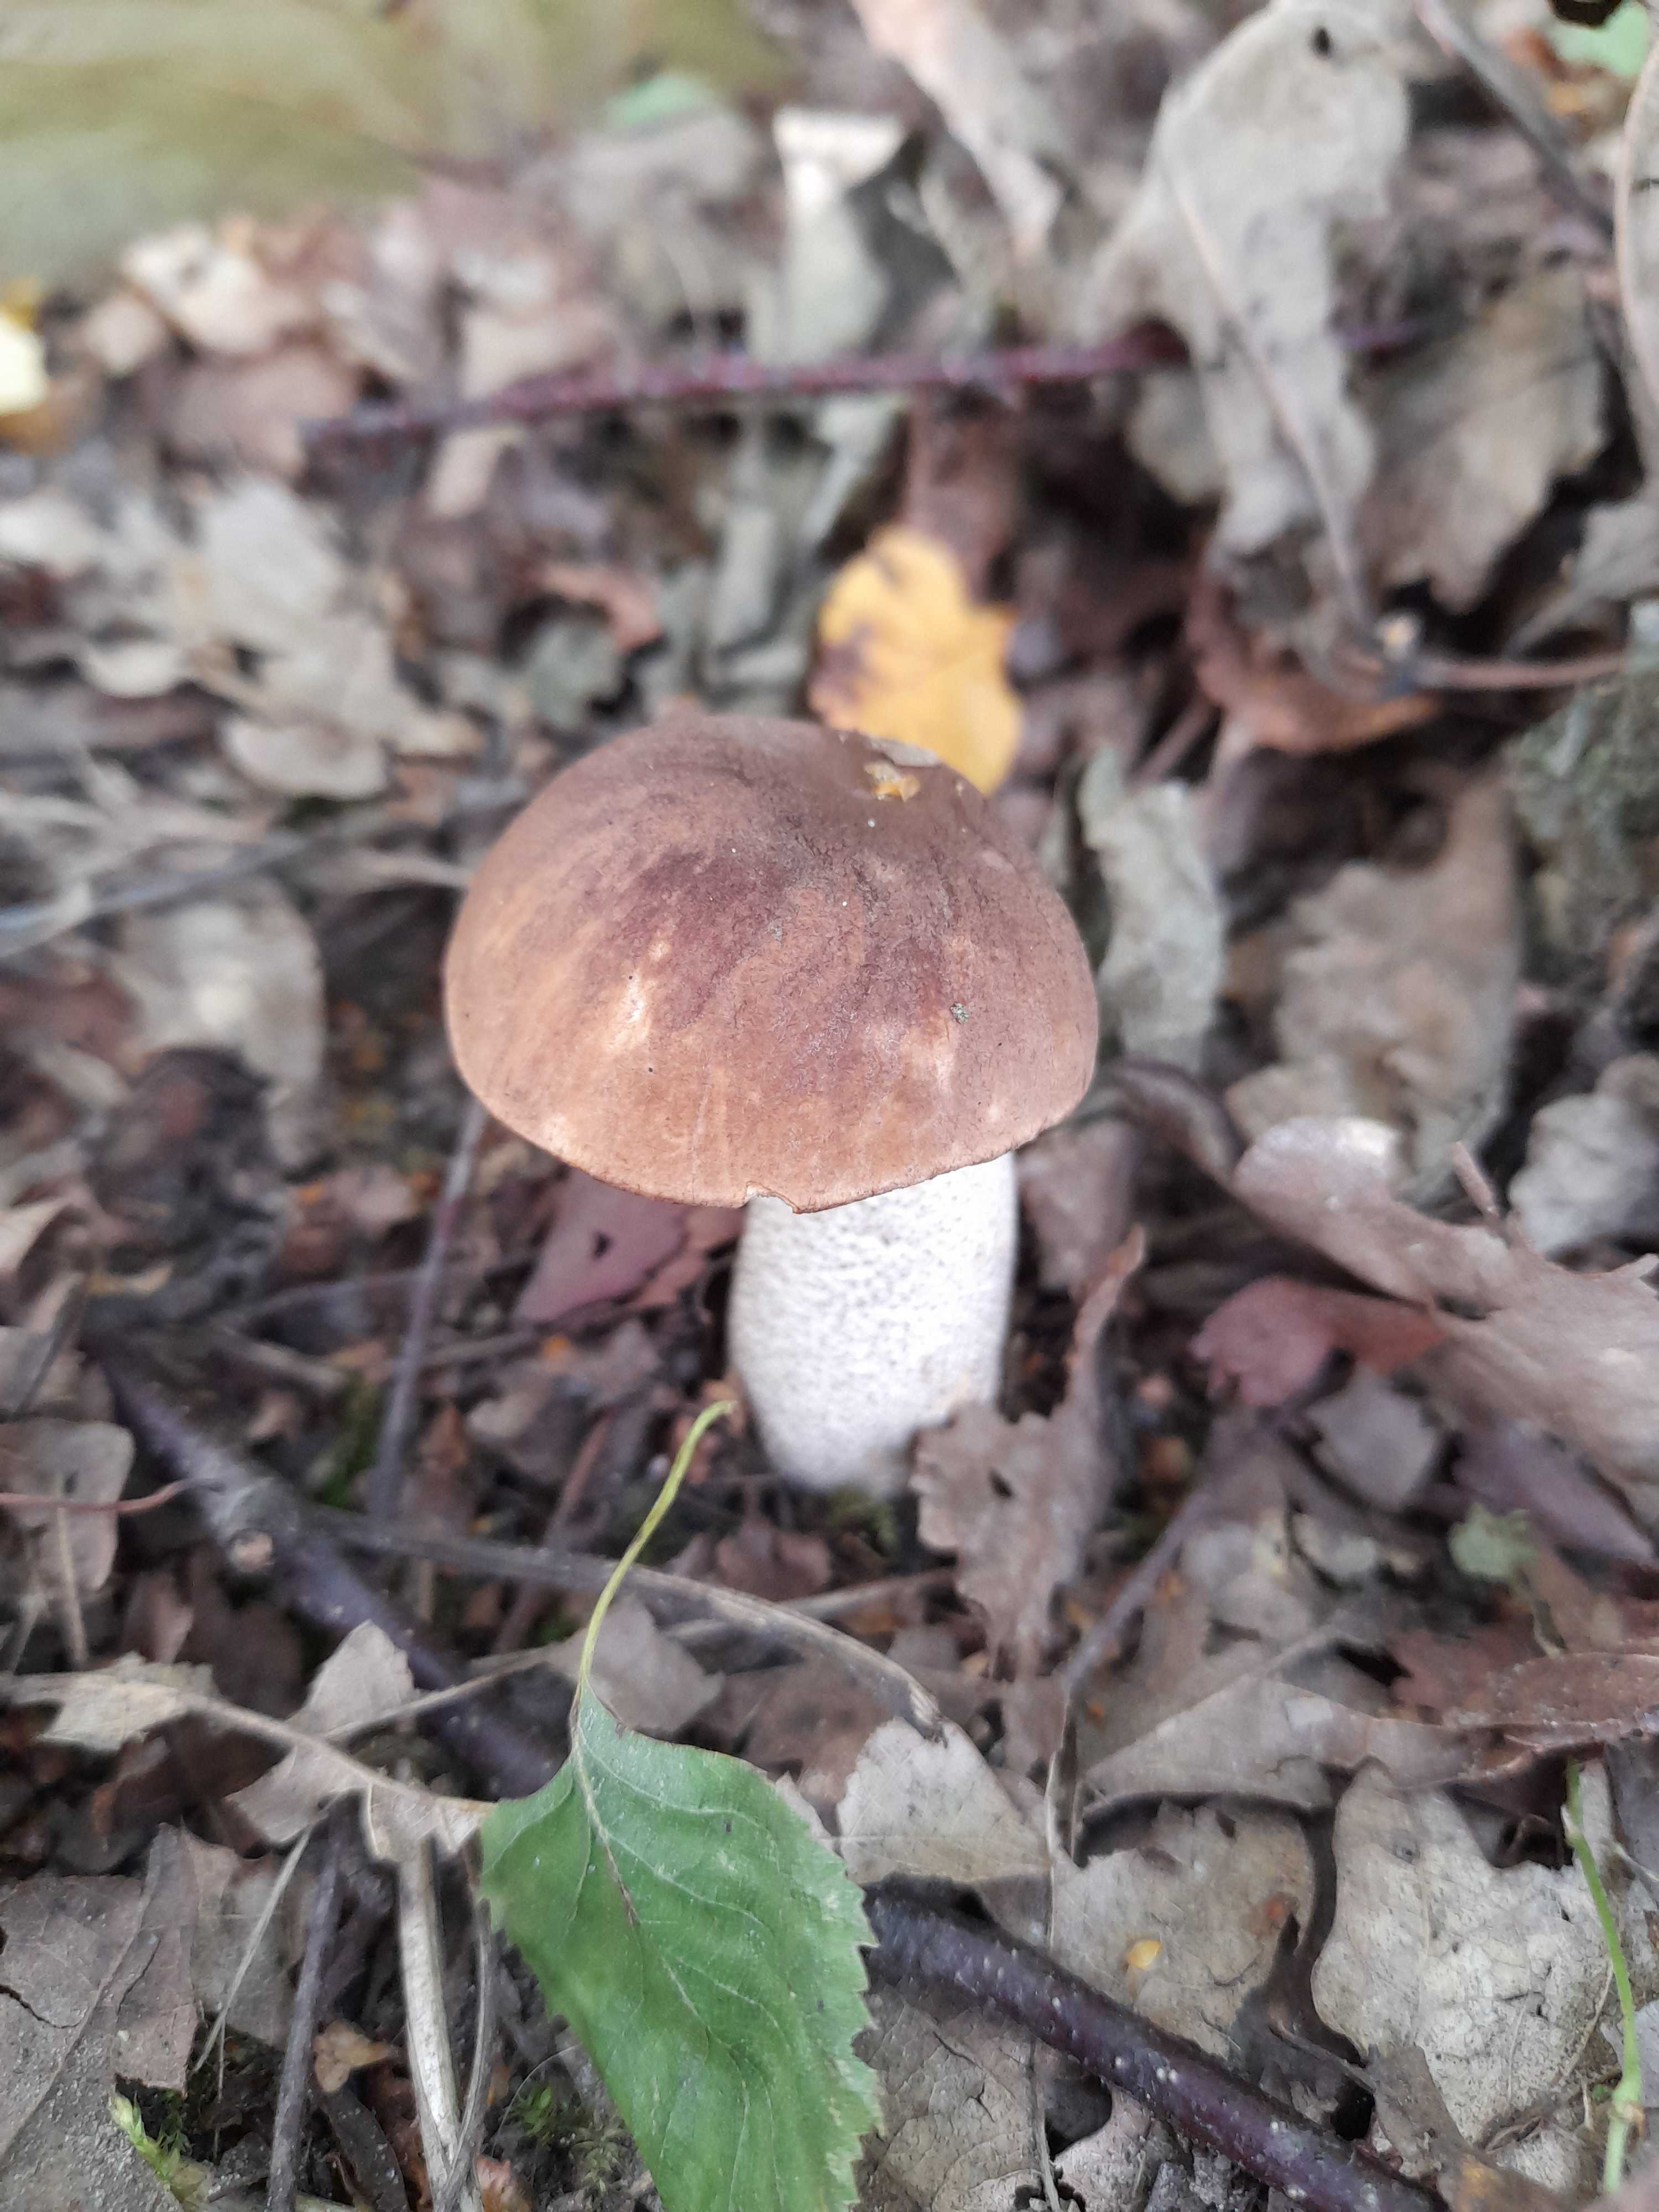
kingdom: Fungi
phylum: Basidiomycota
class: Agaricomycetes
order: Boletales
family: Boletaceae
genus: Leccinum
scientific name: Leccinum
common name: skælrørhat
